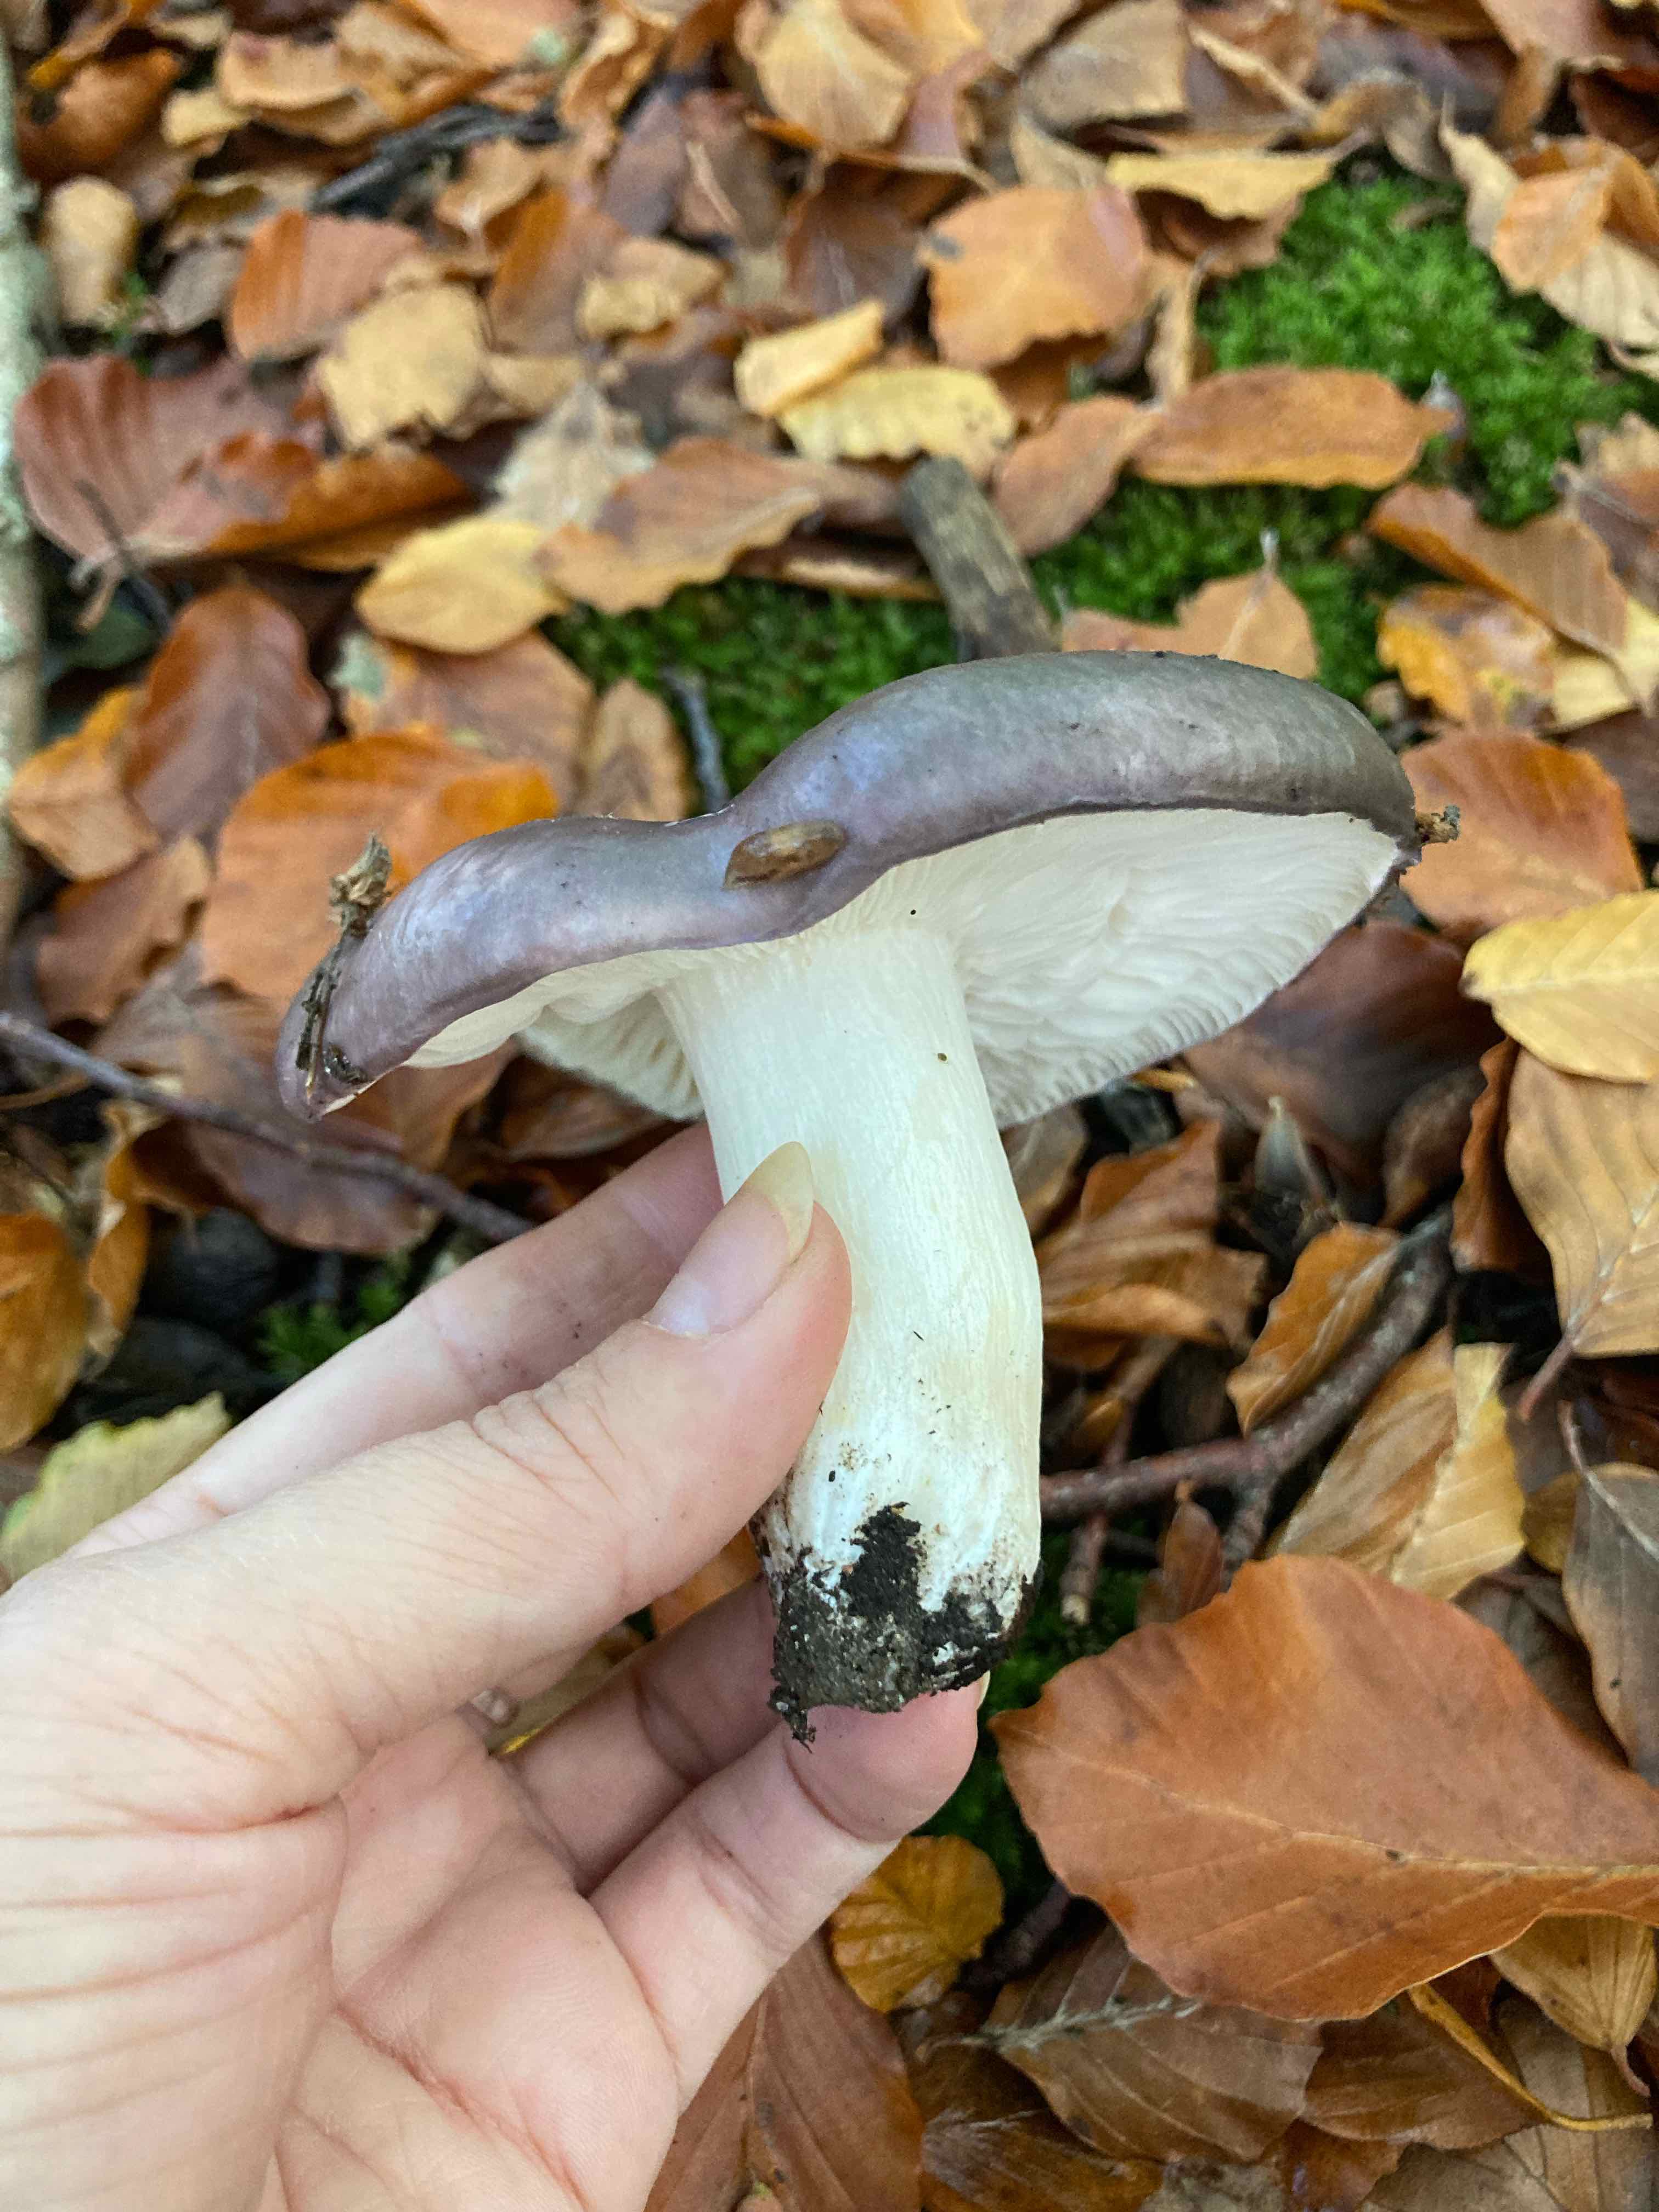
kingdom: Fungi
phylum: Basidiomycota
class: Agaricomycetes
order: Russulales
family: Russulaceae
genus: Russula
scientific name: Russula cyanoxantha
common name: broget skørhat
